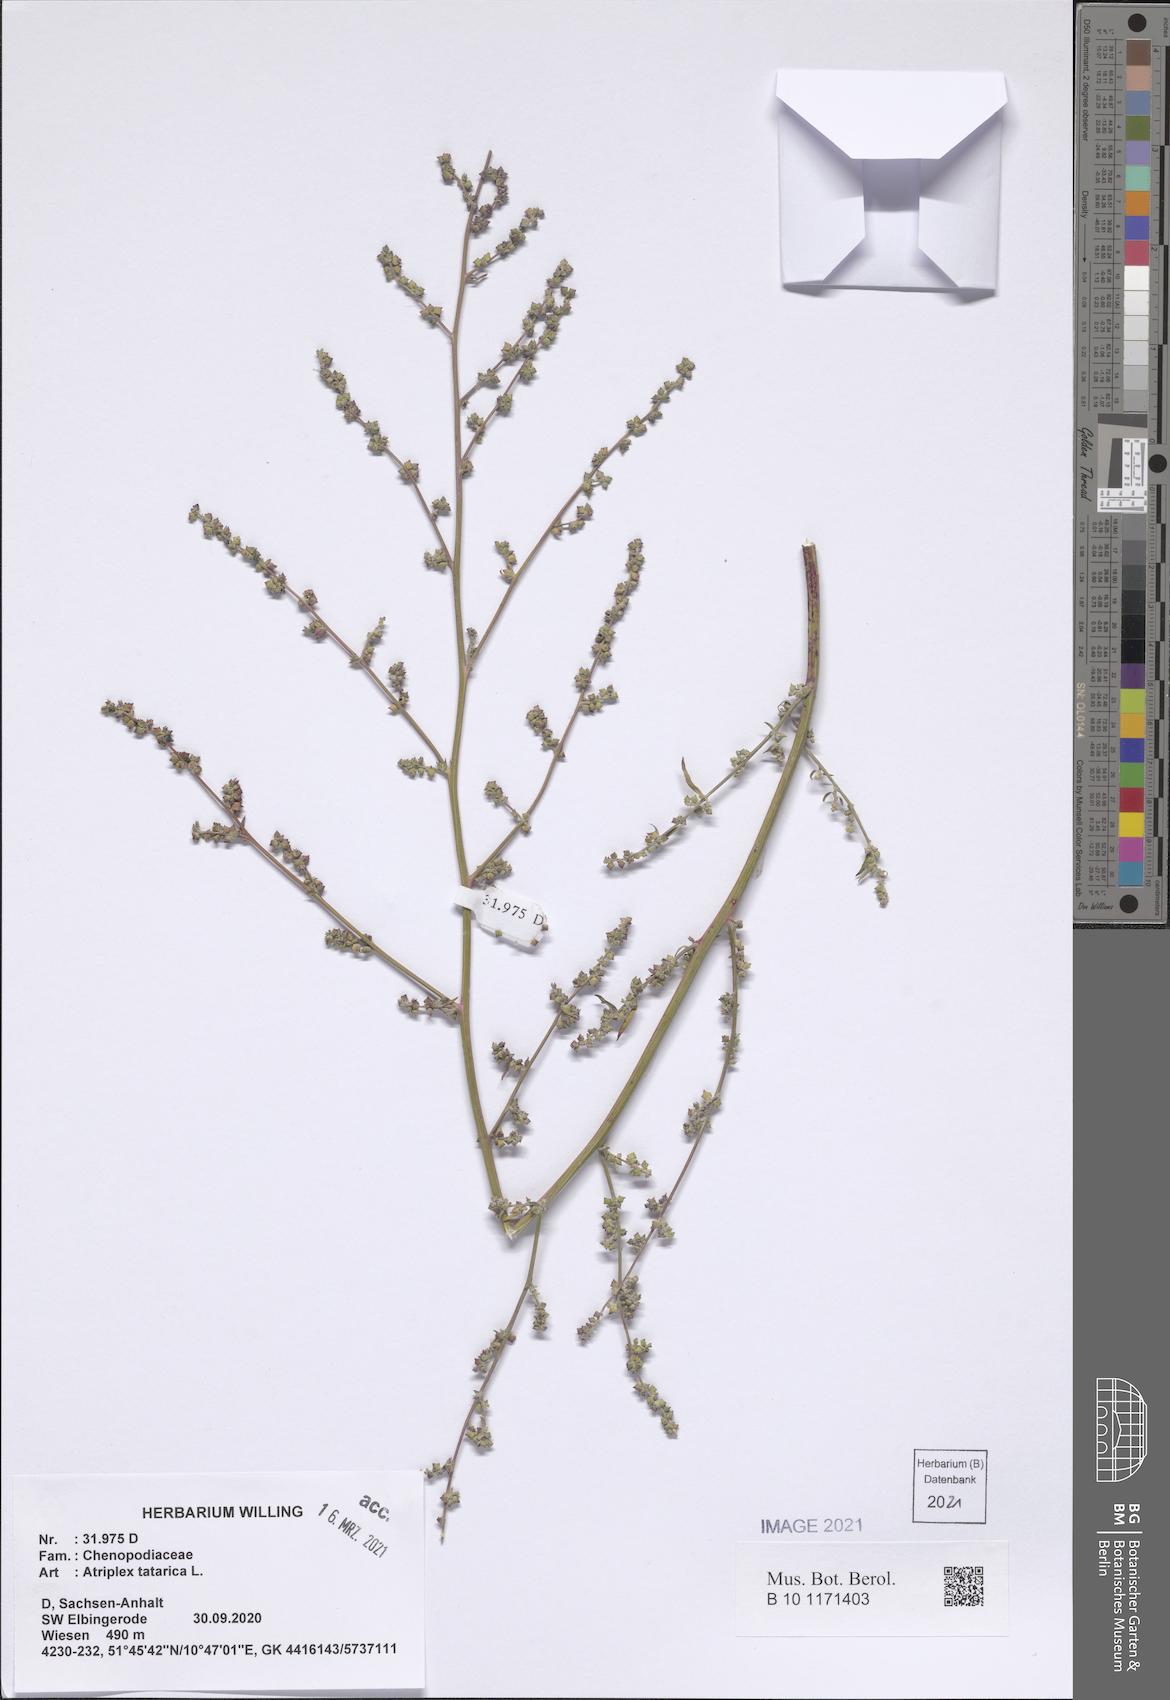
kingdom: Plantae
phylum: Tracheophyta
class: Magnoliopsida
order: Caryophyllales
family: Amaranthaceae
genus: Atriplex
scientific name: Atriplex tatarica
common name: Tatarian orache
